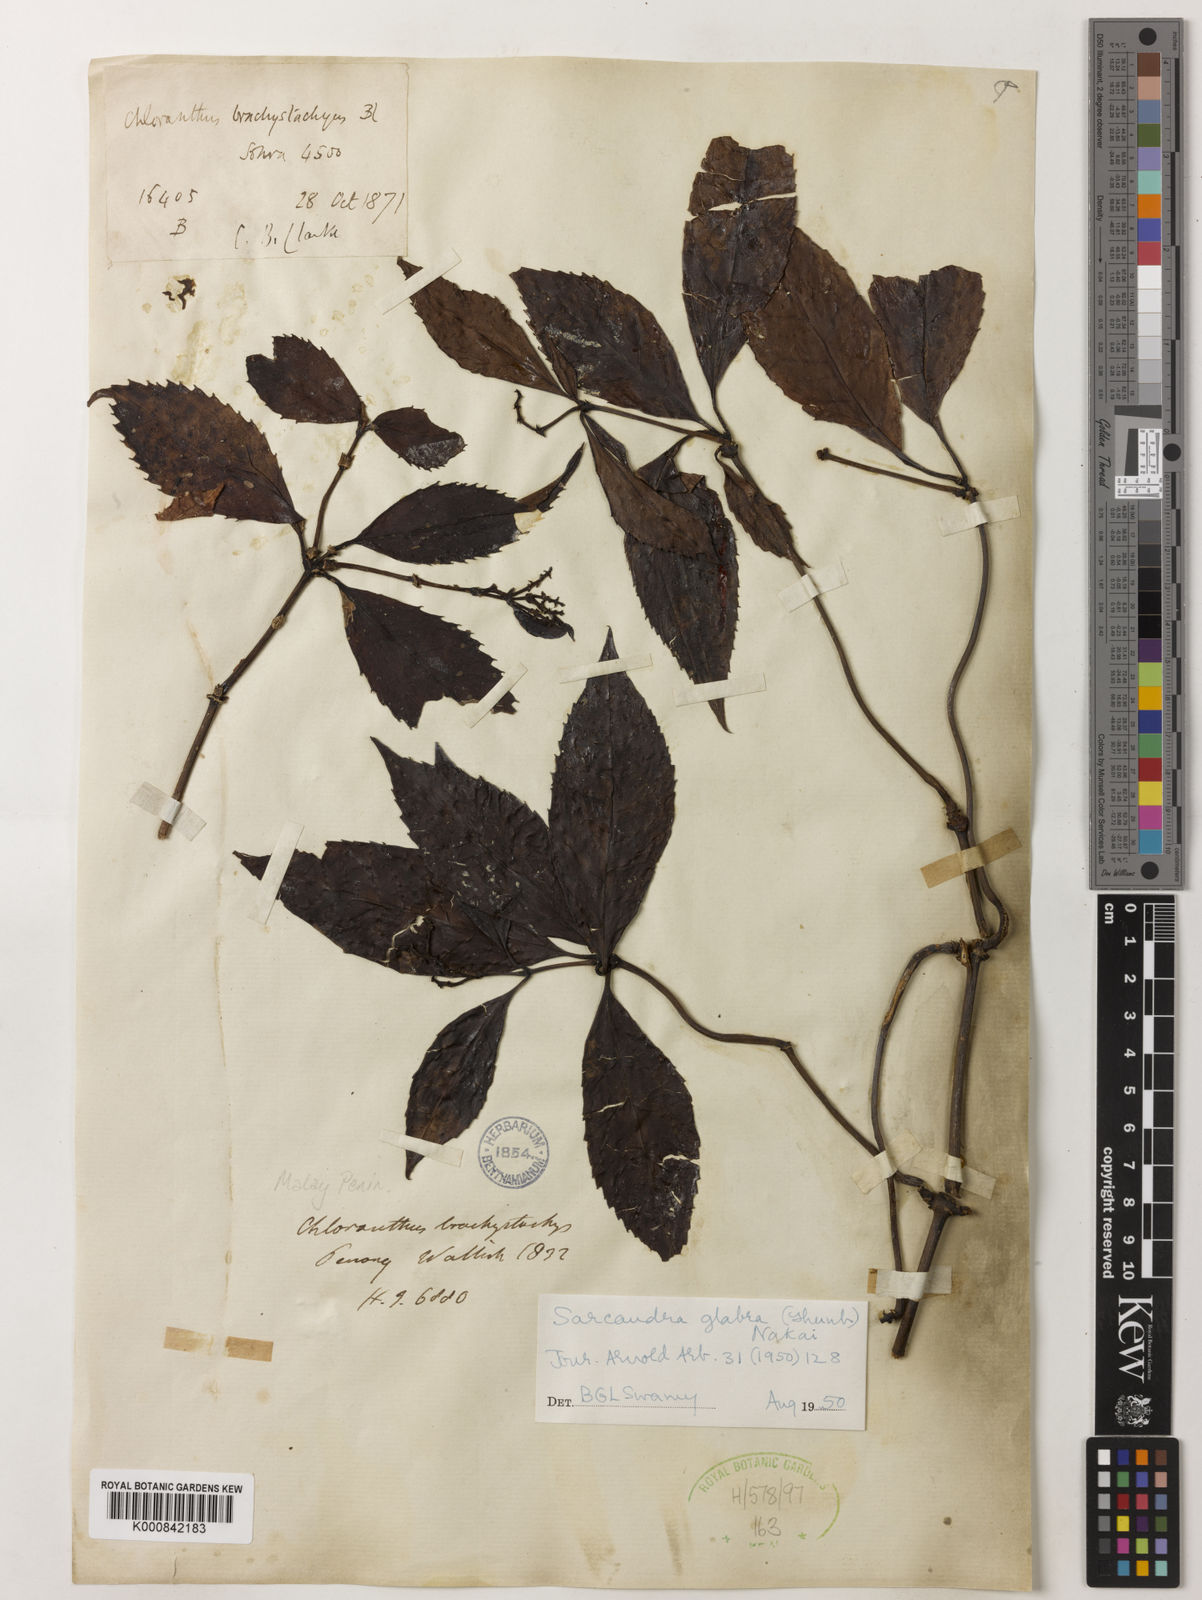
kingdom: Plantae
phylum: Tracheophyta
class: Magnoliopsida
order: Chloranthales
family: Chloranthaceae
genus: Sarcandra
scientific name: Sarcandra glabra
